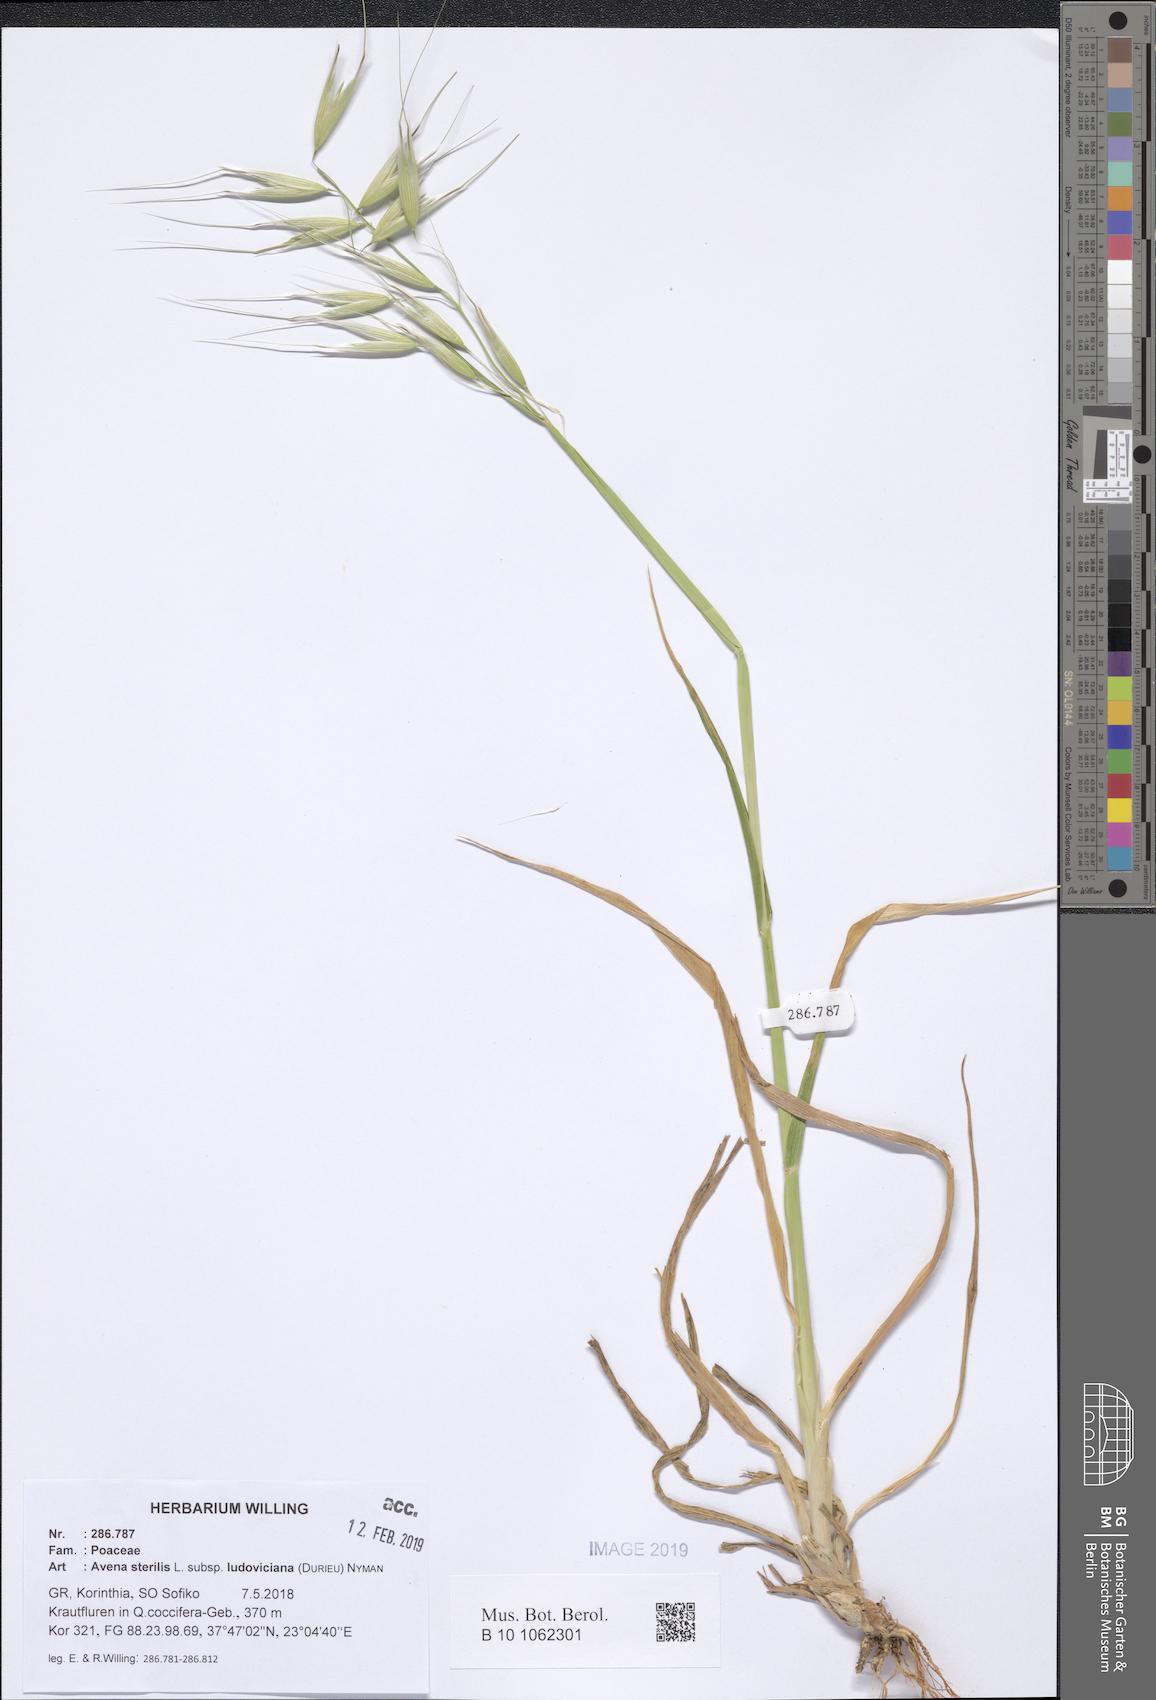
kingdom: Plantae
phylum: Tracheophyta
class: Liliopsida
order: Poales
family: Poaceae
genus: Avena
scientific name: Avena sterilis
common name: Animated oat
